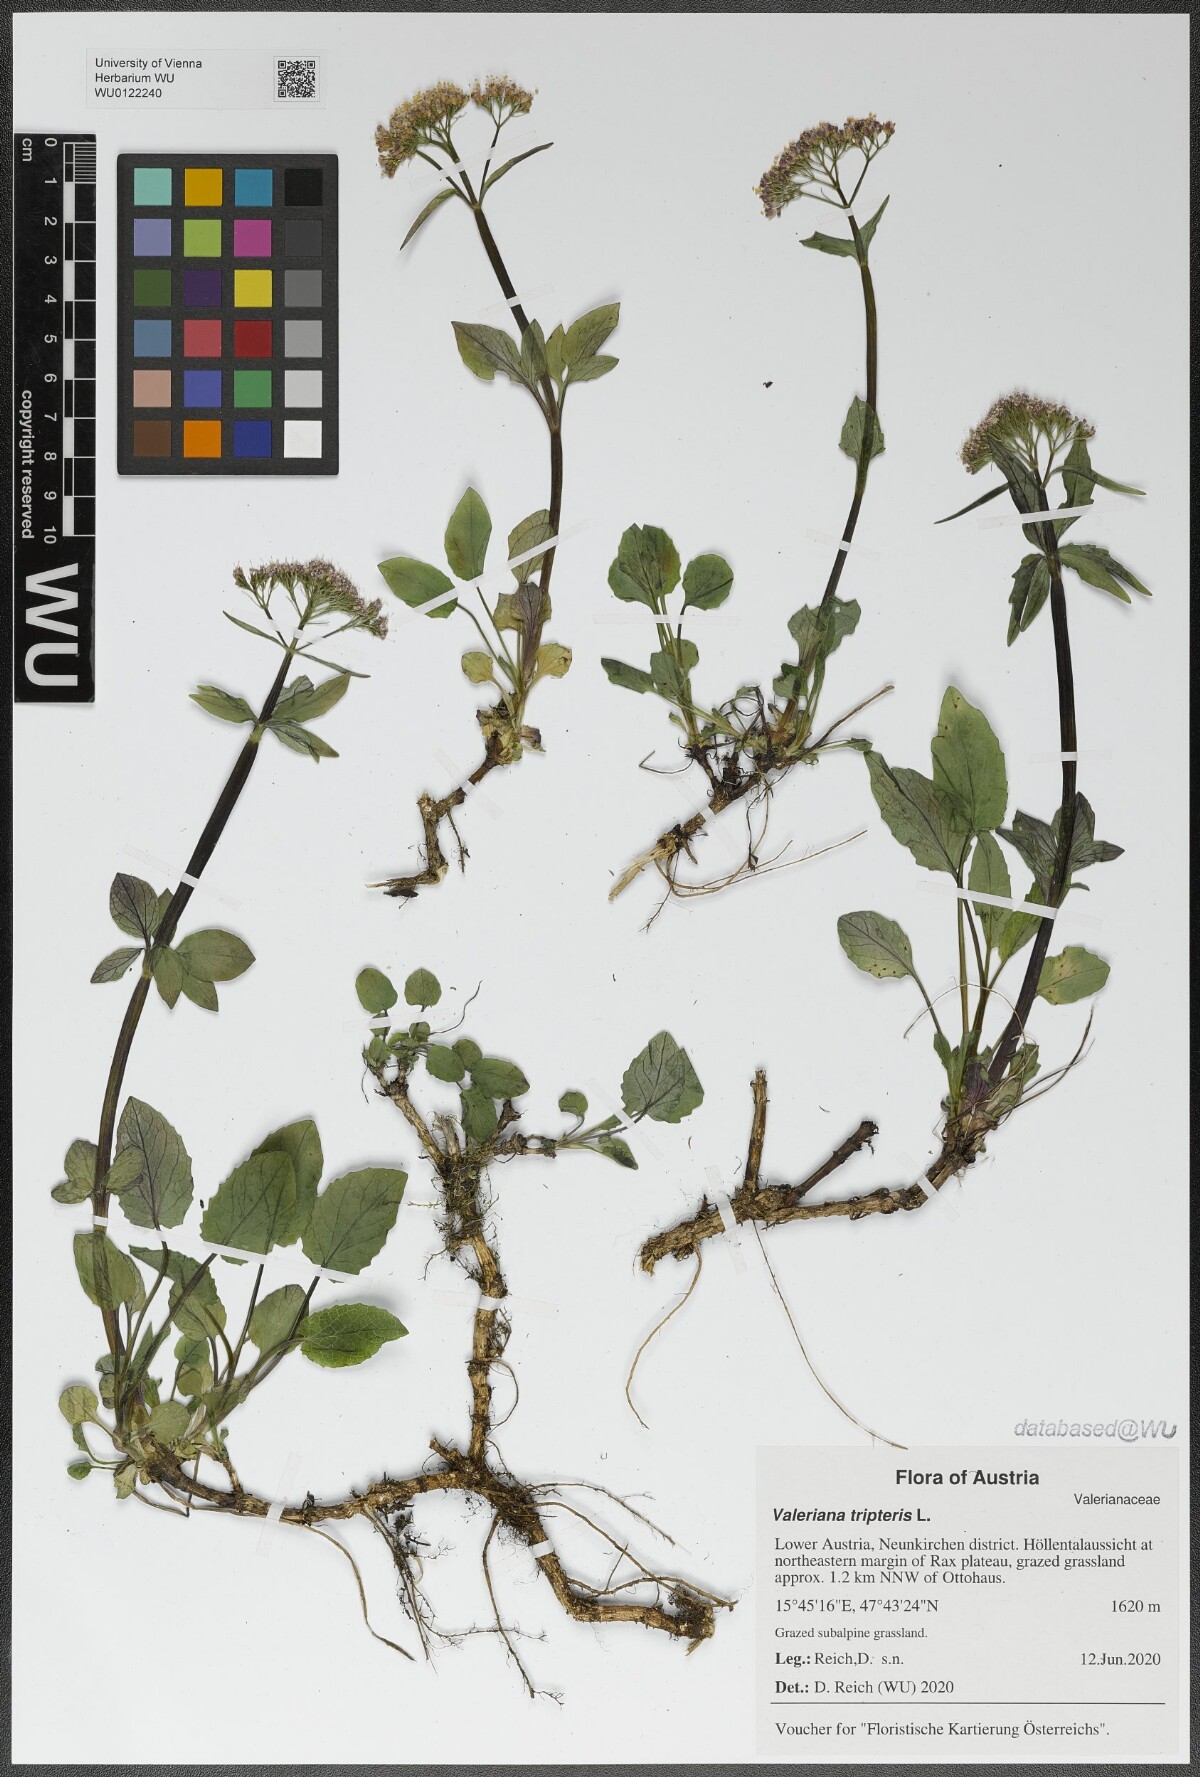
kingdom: Plantae
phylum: Tracheophyta
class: Magnoliopsida
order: Dipsacales
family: Caprifoliaceae
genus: Valeriana
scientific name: Valeriana tripteris
